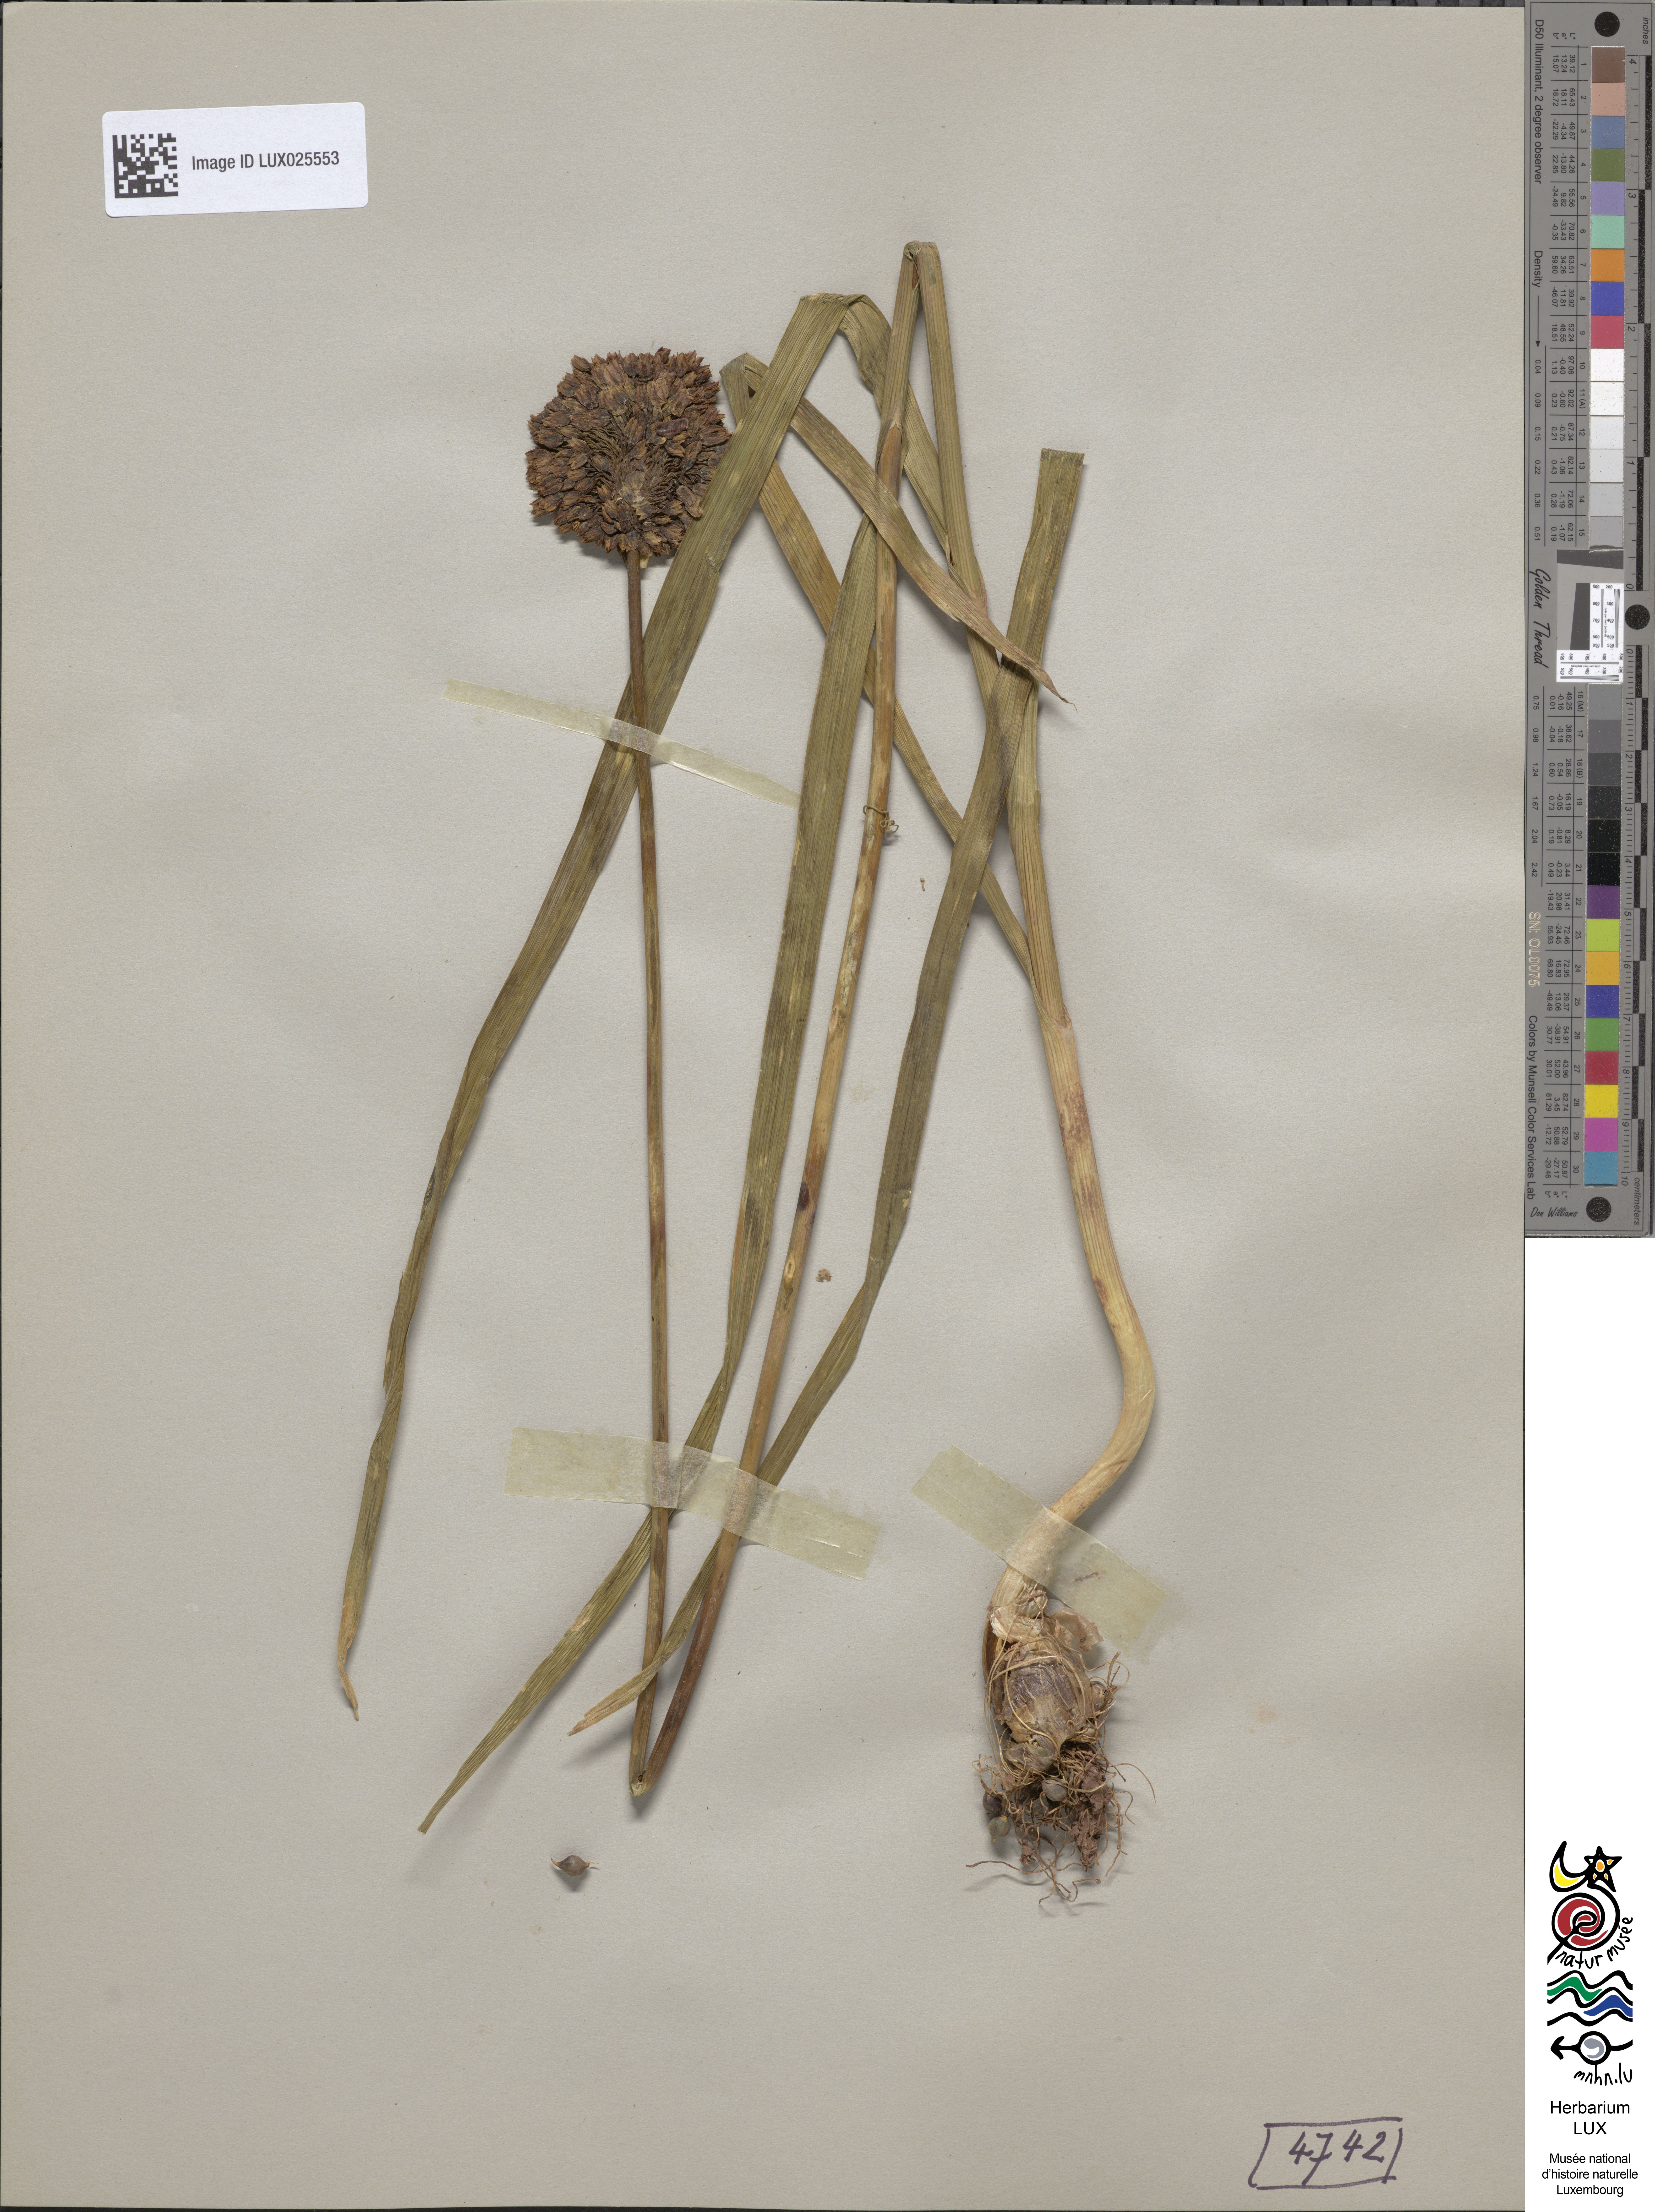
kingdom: Plantae
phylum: Tracheophyta
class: Liliopsida
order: Asparagales
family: Amaryllidaceae
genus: Allium
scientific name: Allium rotundum
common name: Sand leek
